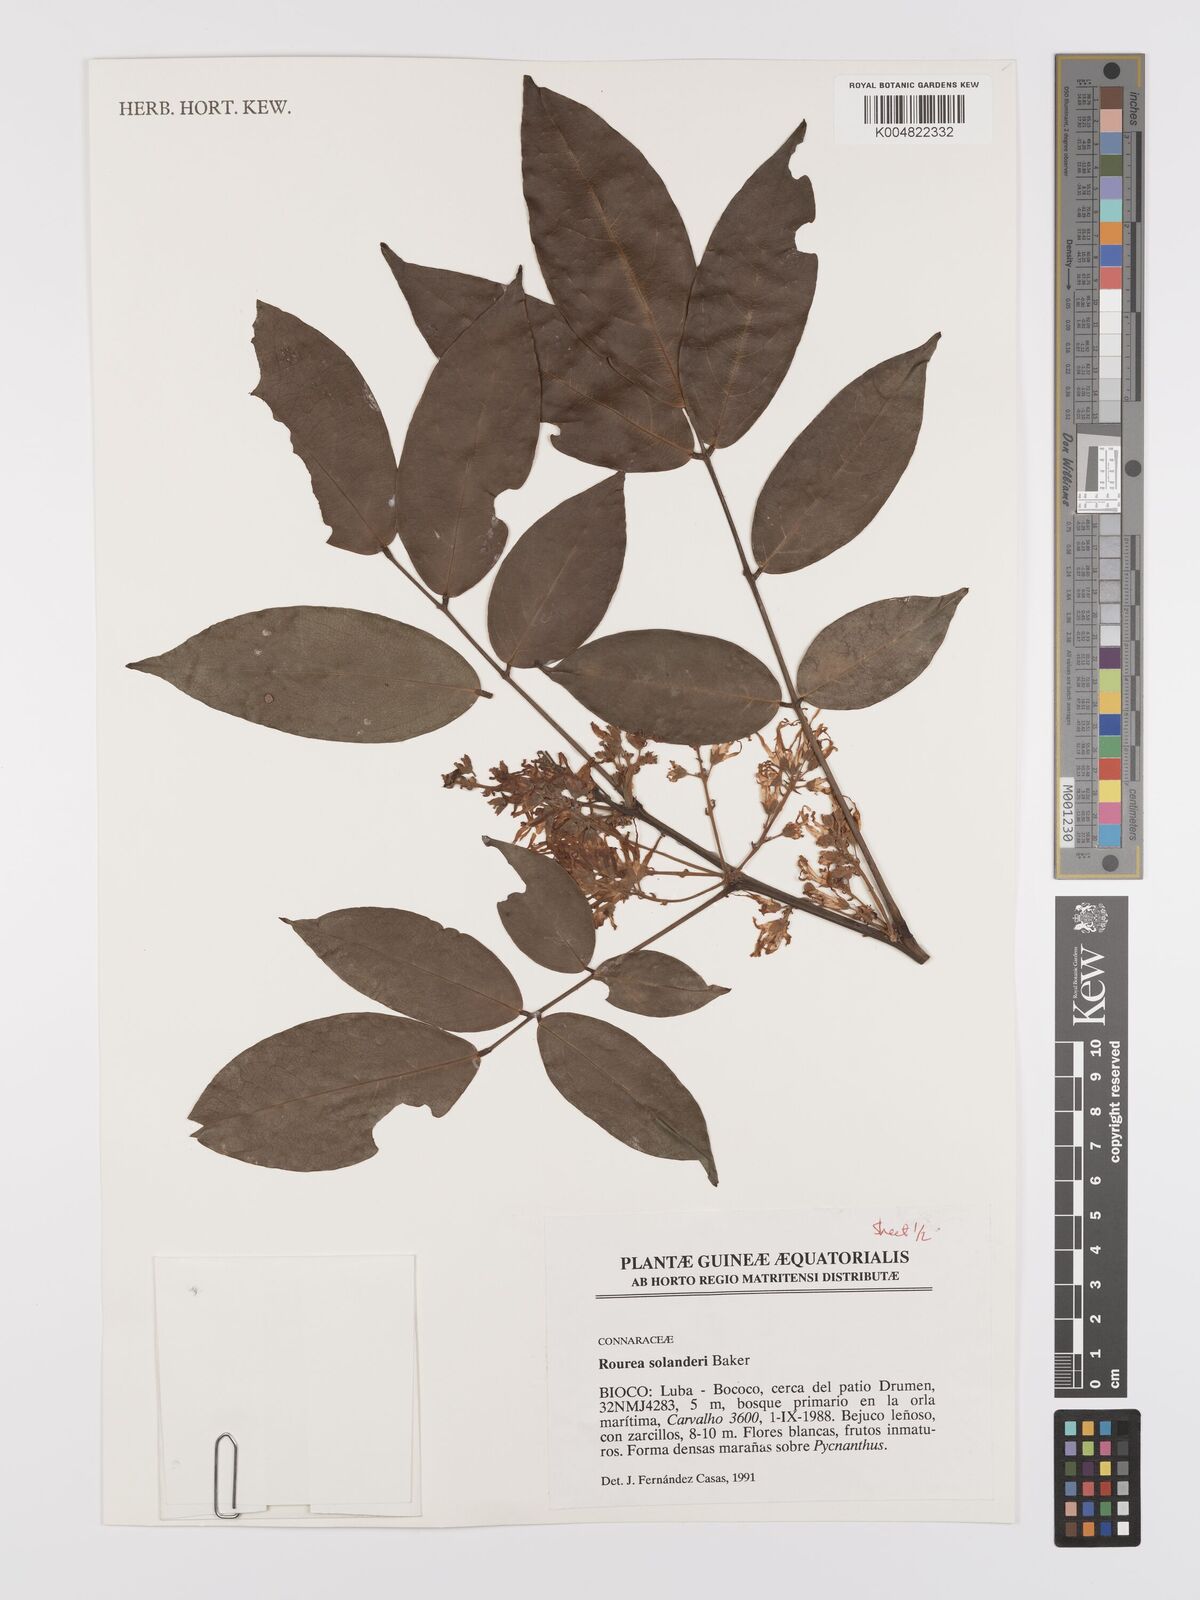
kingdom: Plantae
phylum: Tracheophyta
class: Magnoliopsida
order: Oxalidales
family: Connaraceae
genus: Rourea
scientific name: Rourea solanderi
